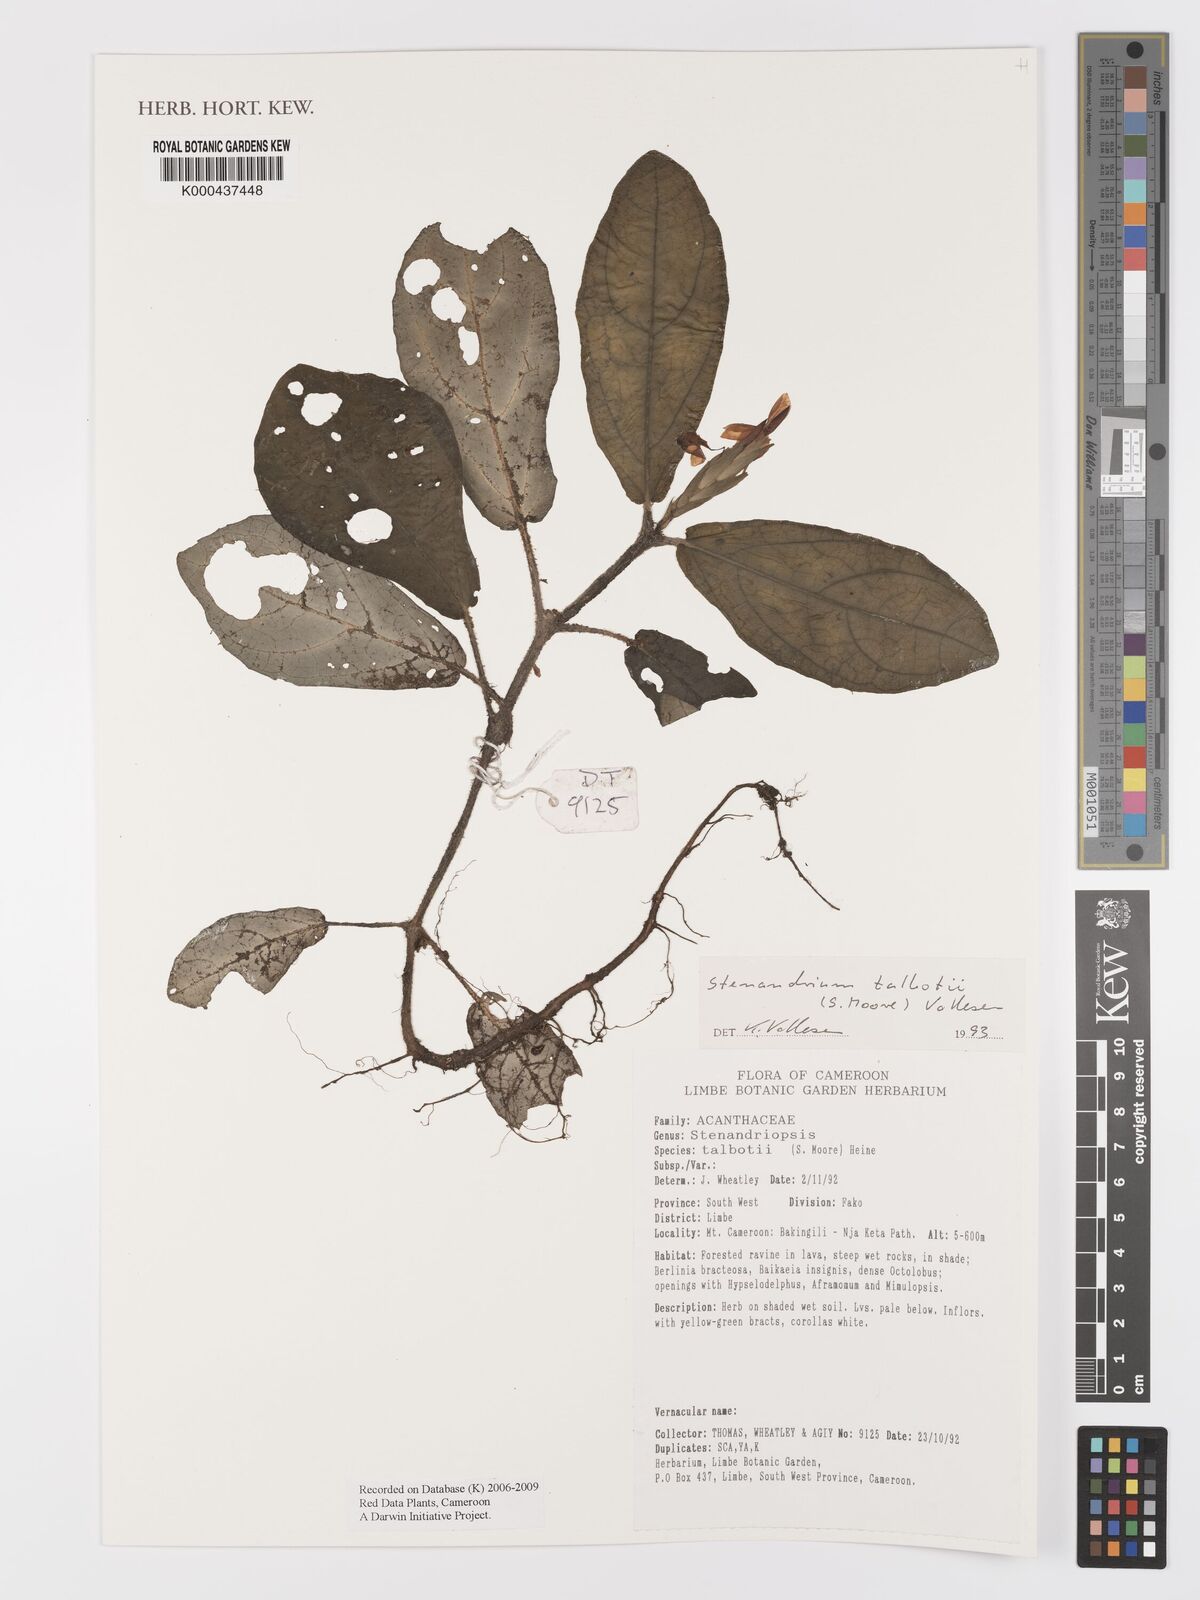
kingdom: Plantae
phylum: Tracheophyta
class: Magnoliopsida
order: Lamiales
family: Acanthaceae
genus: Stenandriopsis
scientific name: Stenandriopsis talbotii
